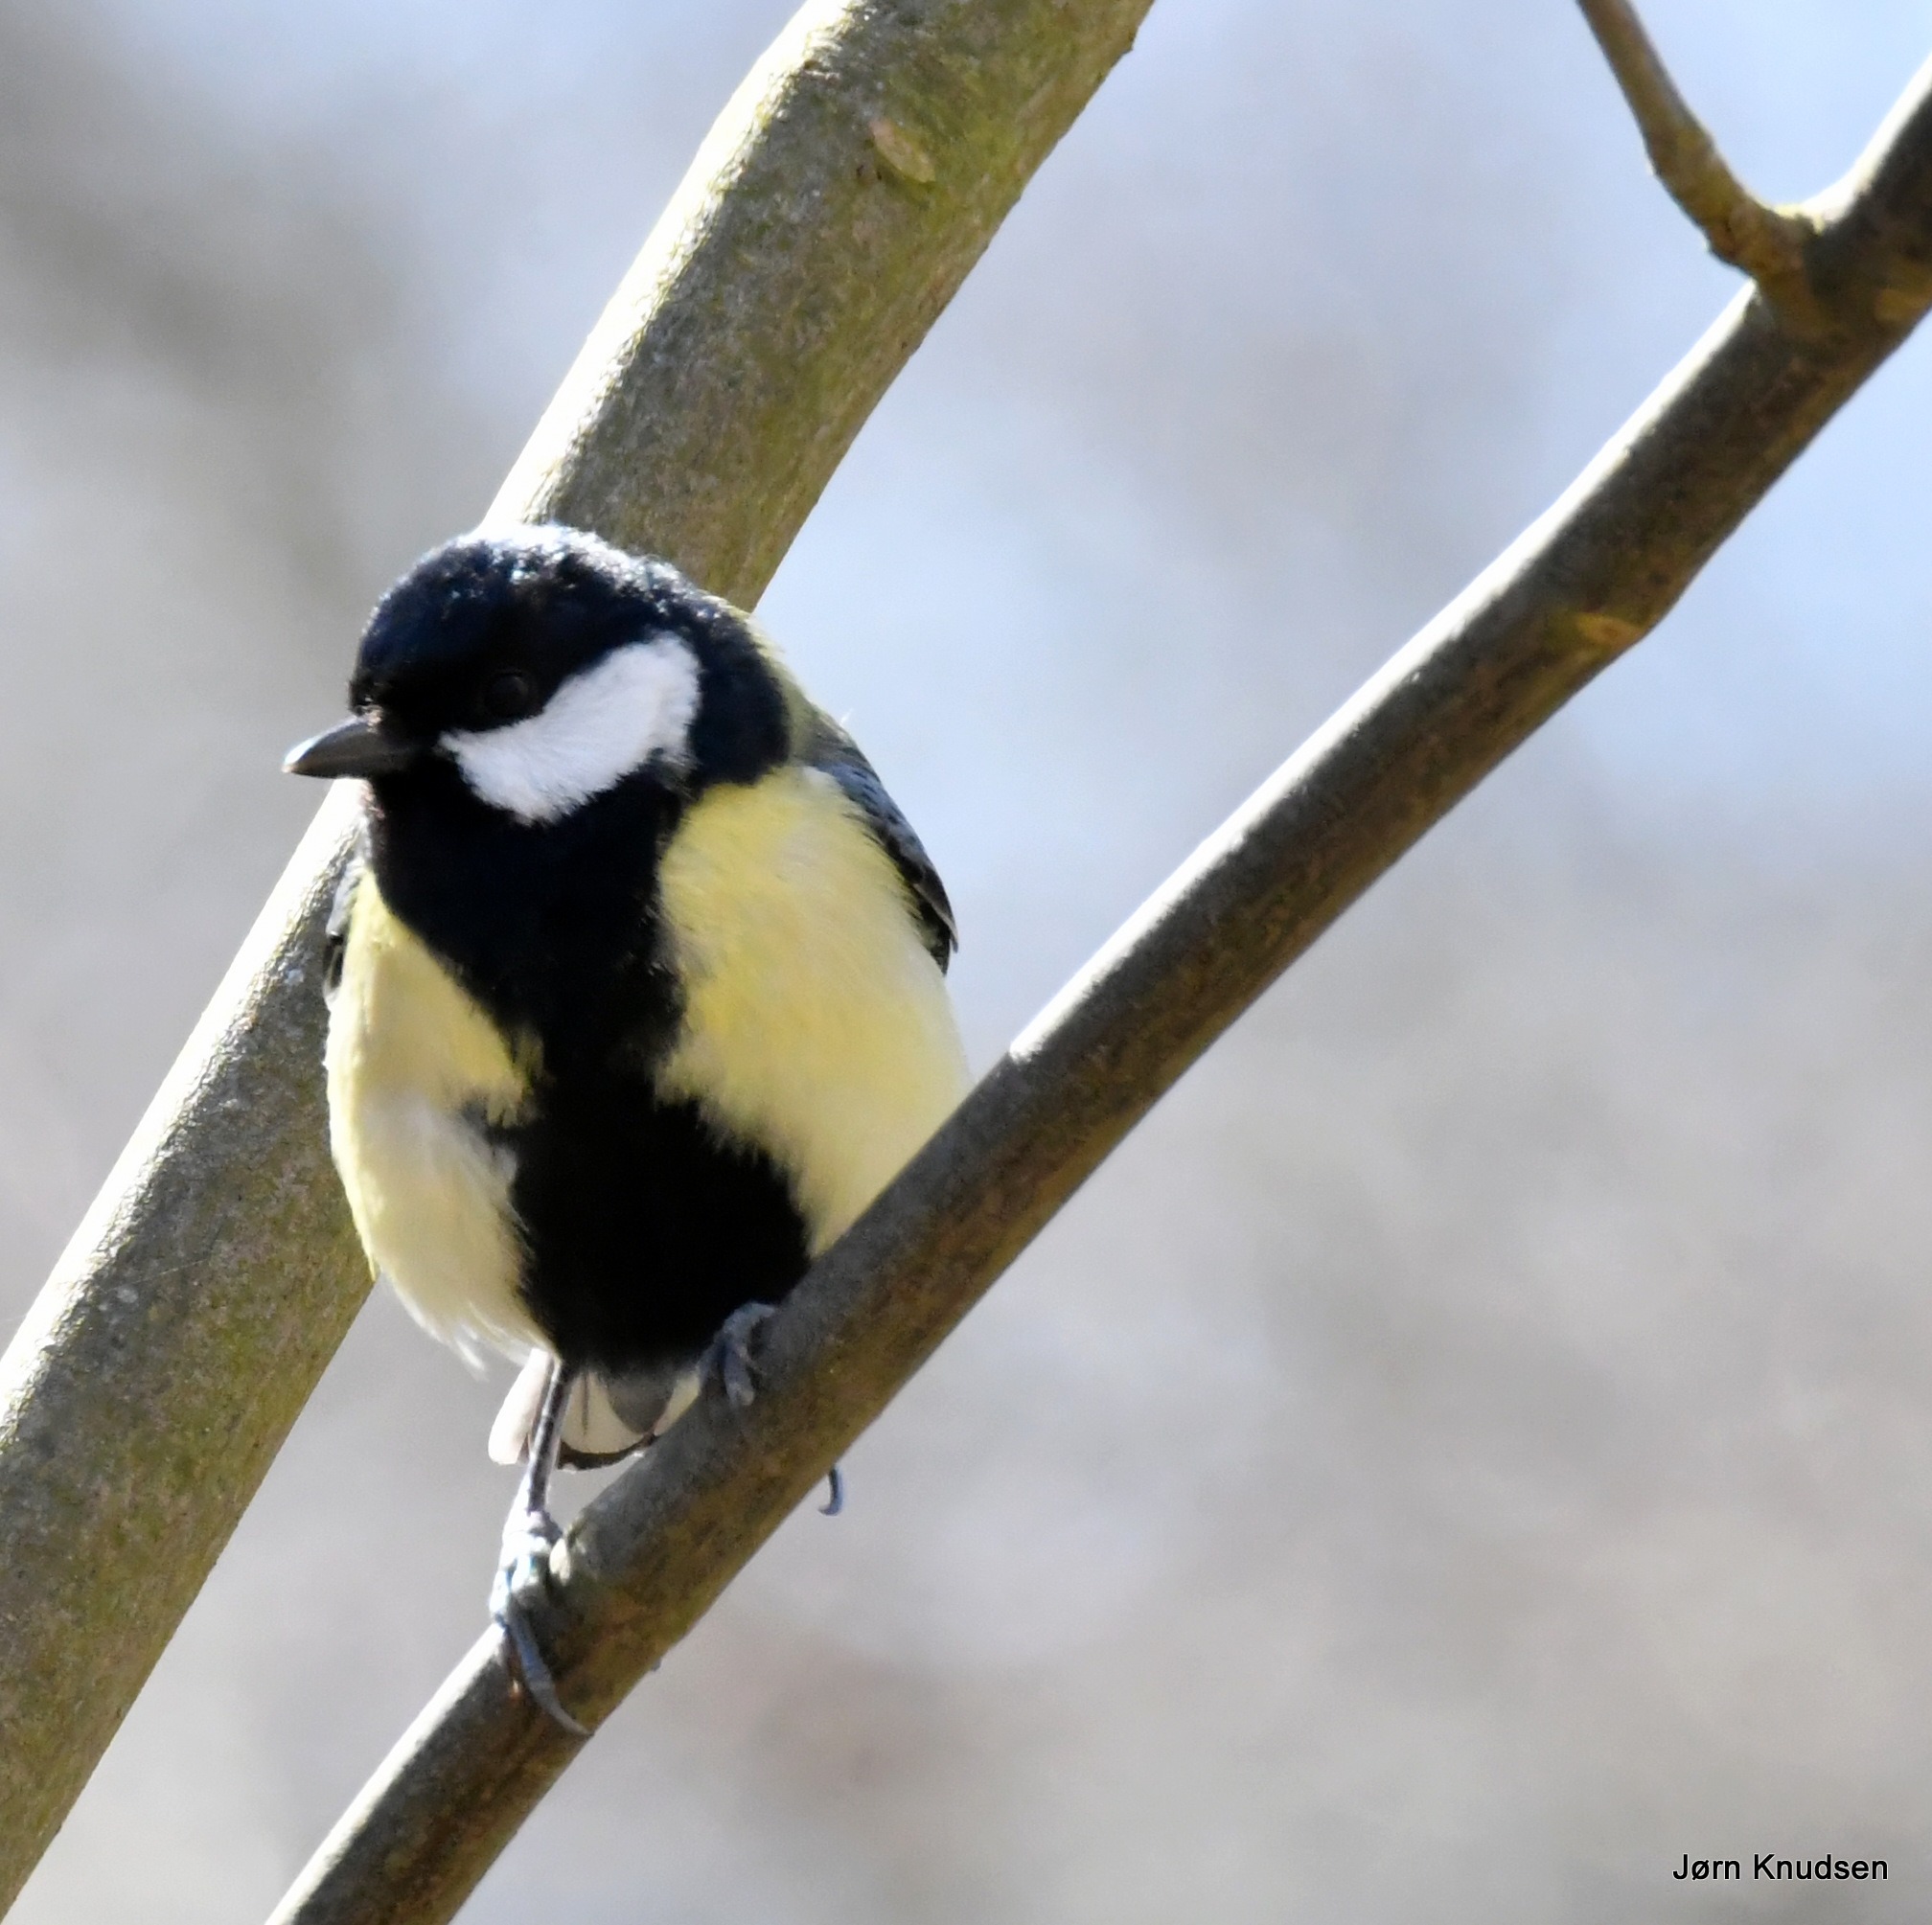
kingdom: Animalia
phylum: Chordata
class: Aves
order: Passeriformes
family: Paridae
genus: Parus
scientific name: Parus major
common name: Musvit
